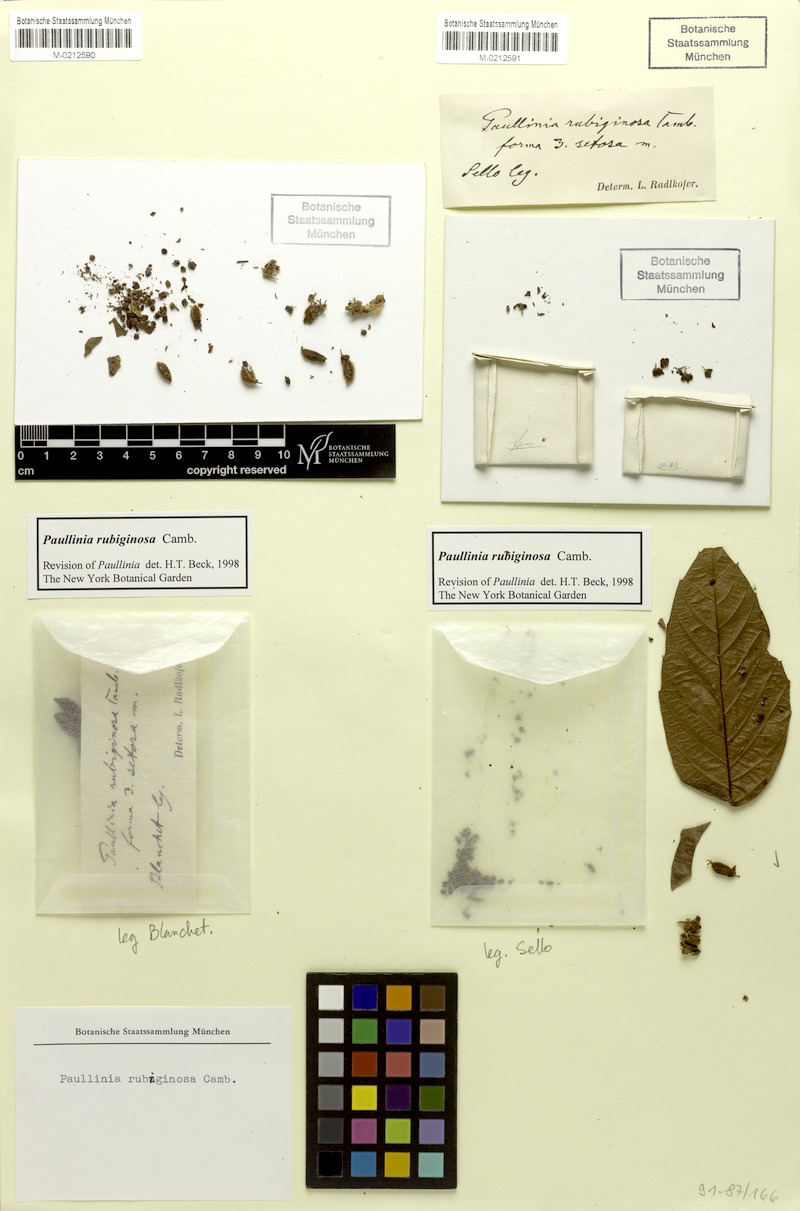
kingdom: Plantae
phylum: Tracheophyta
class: Magnoliopsida
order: Sapindales
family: Sapindaceae
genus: Paullinia
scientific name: Paullinia rubiginosa
